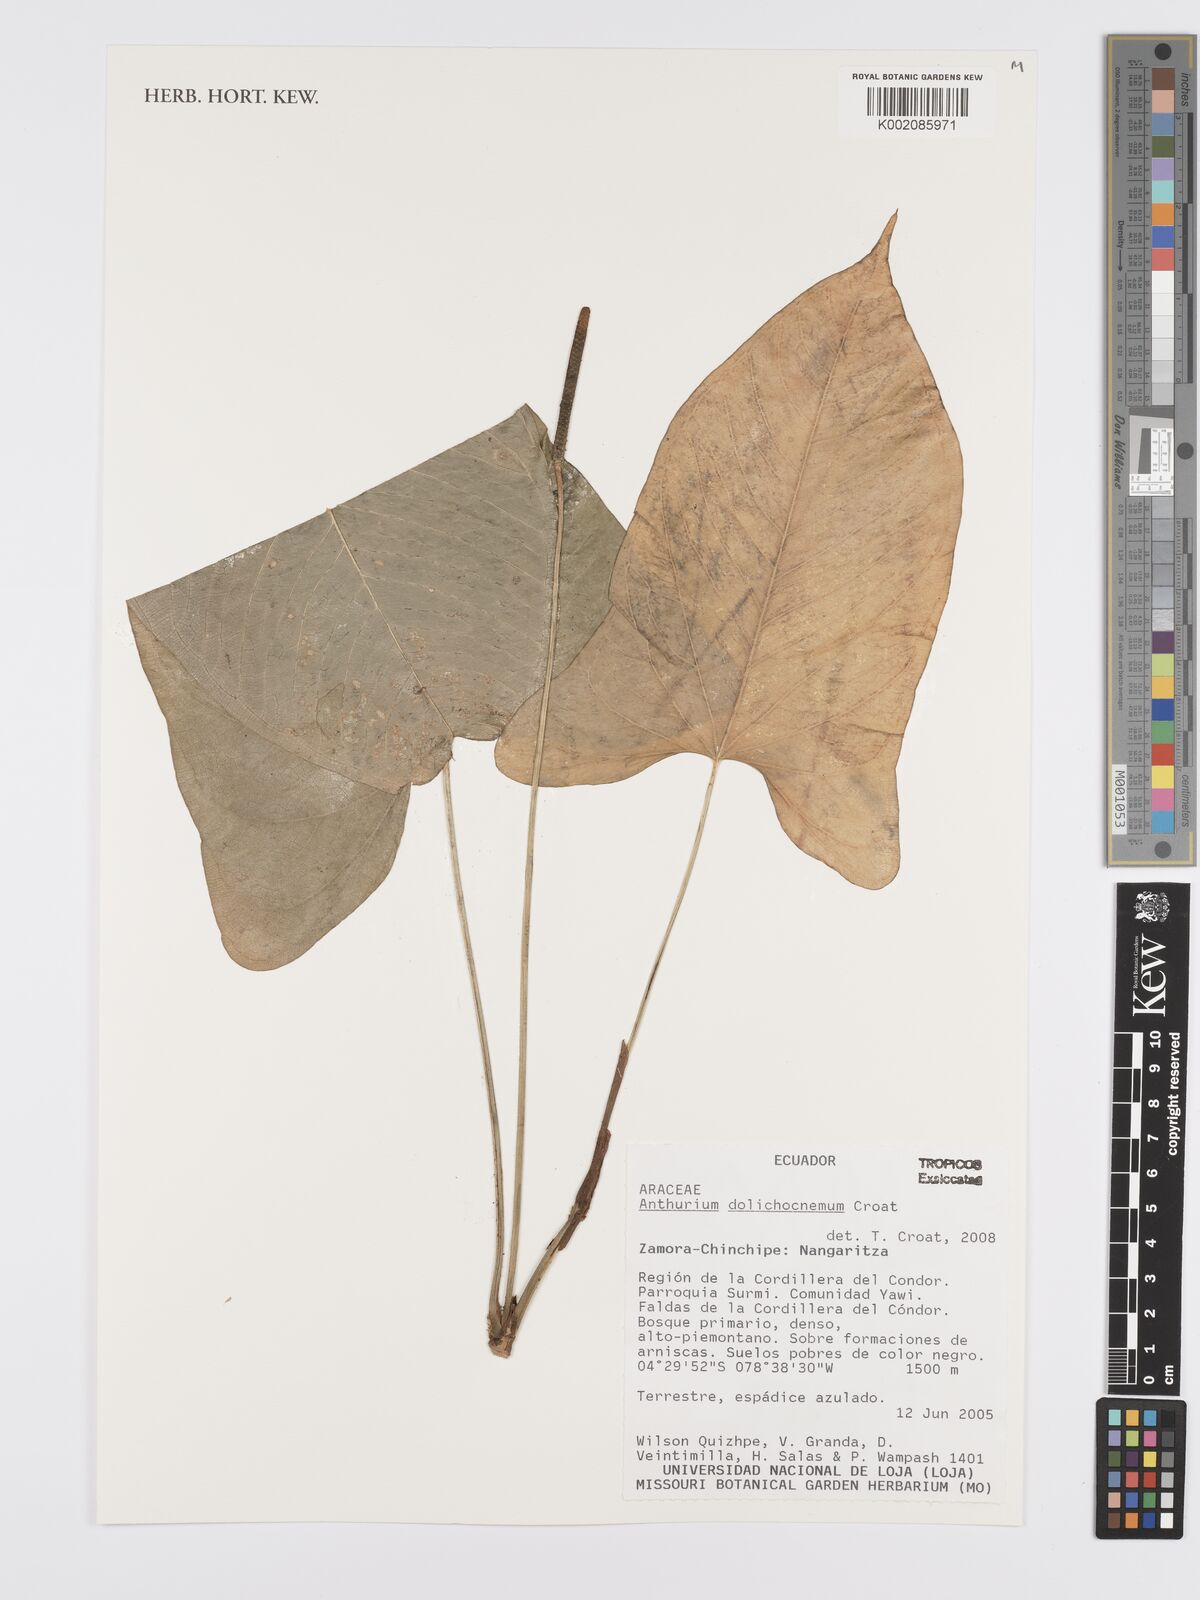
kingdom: Plantae
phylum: Tracheophyta
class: Liliopsida
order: Alismatales
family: Araceae
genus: Anthurium
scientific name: Anthurium dolichocnemum
